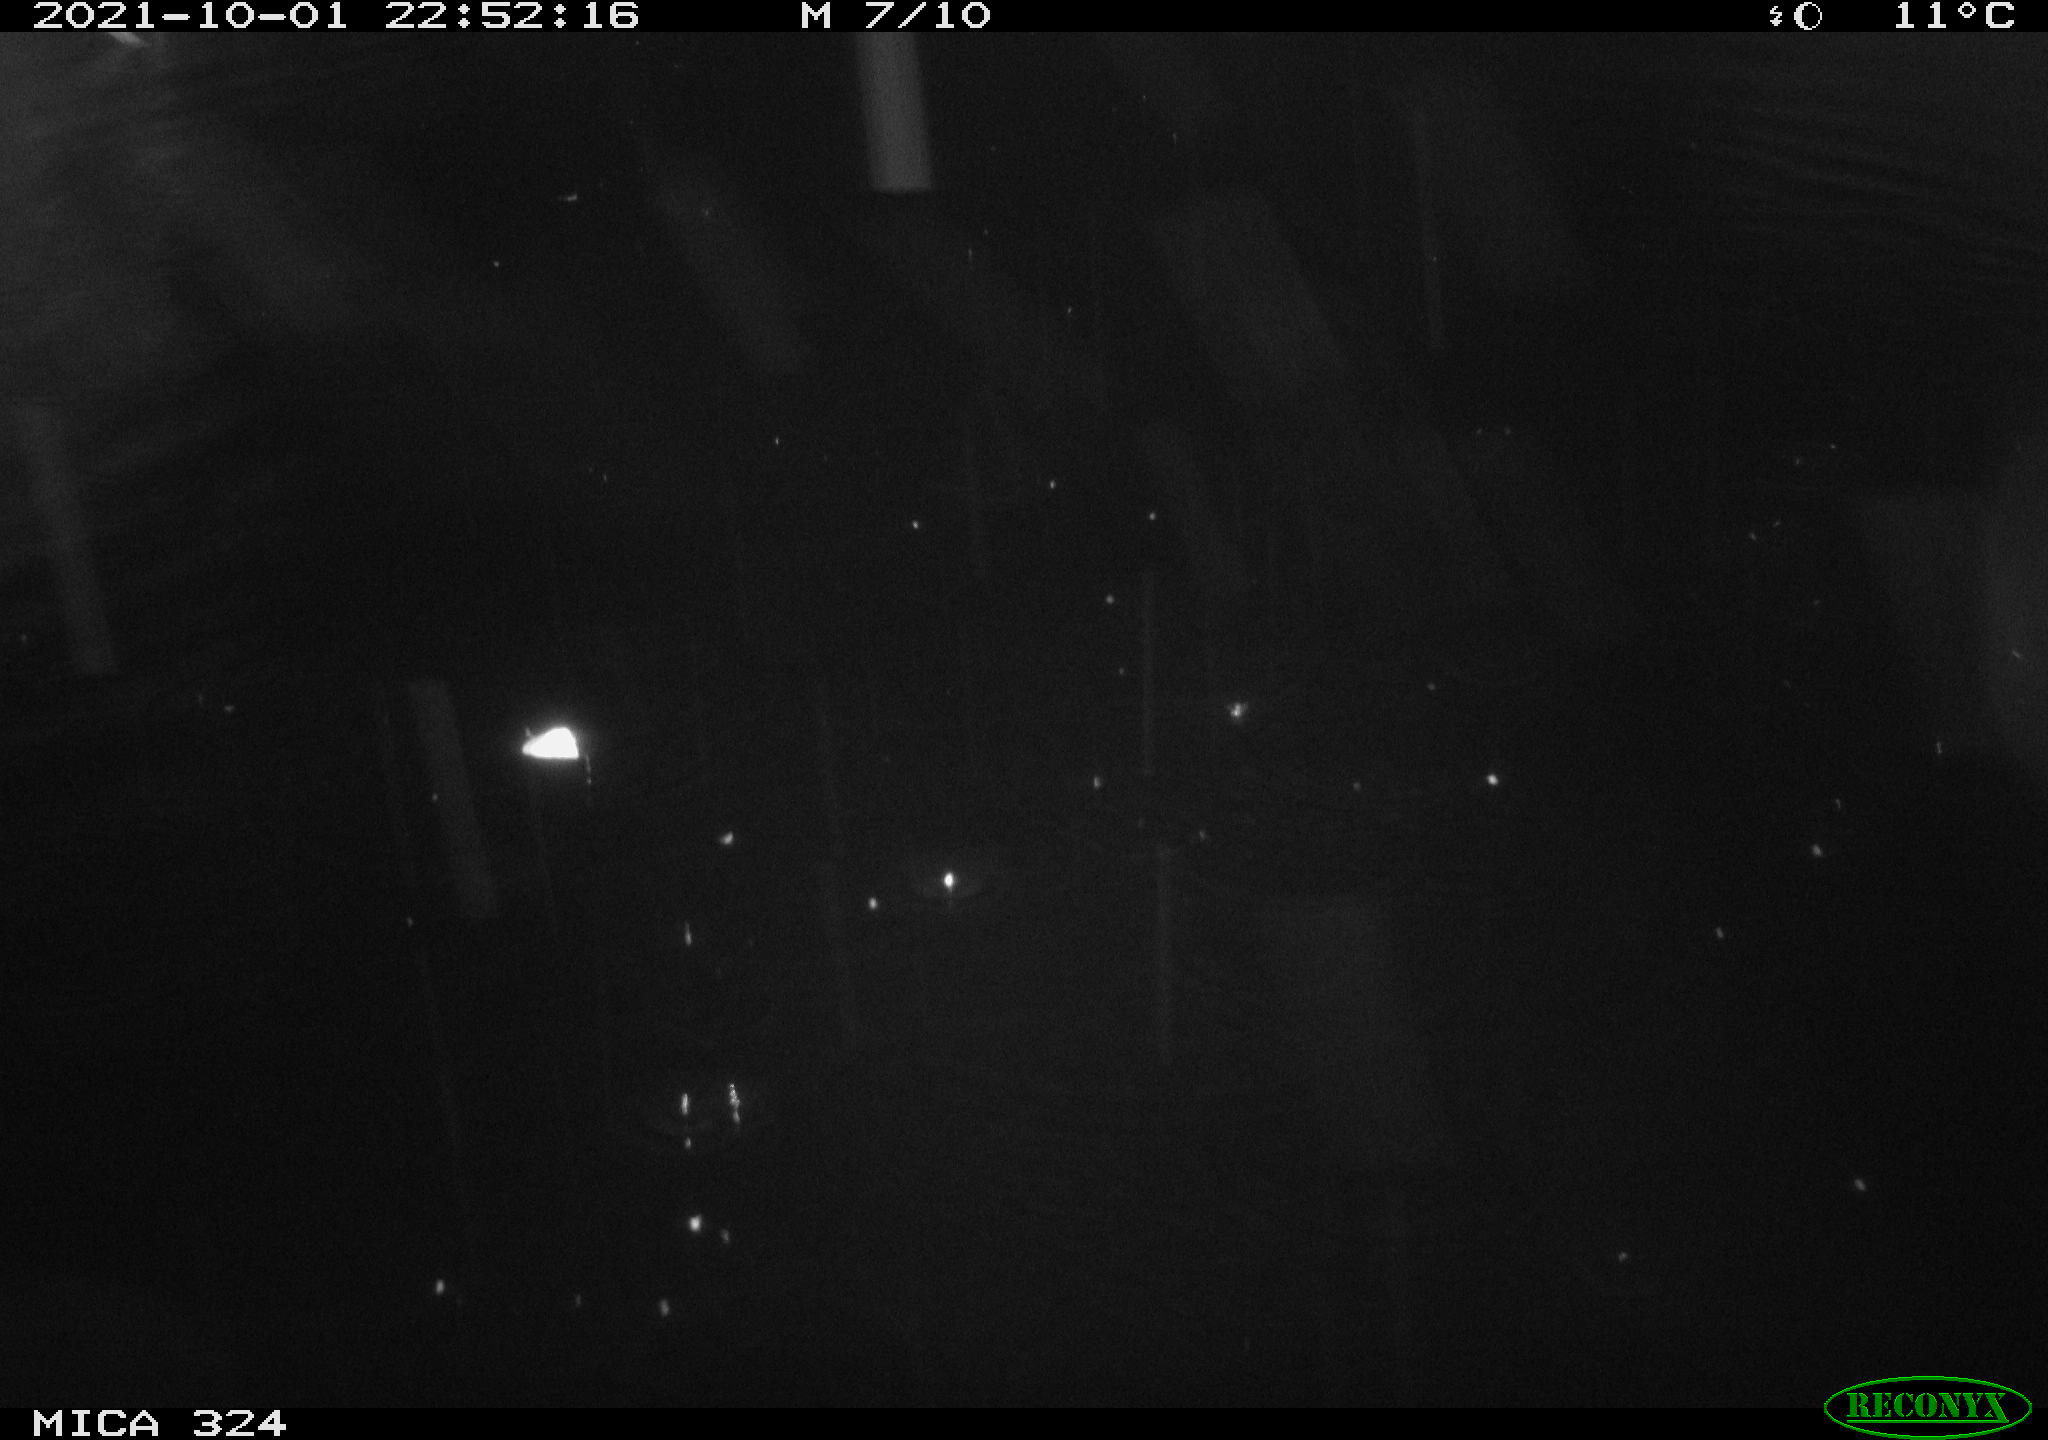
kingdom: Animalia
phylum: Chordata
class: Mammalia
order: Rodentia
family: Cricetidae
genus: Ondatra
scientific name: Ondatra zibethicus
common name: Muskrat
